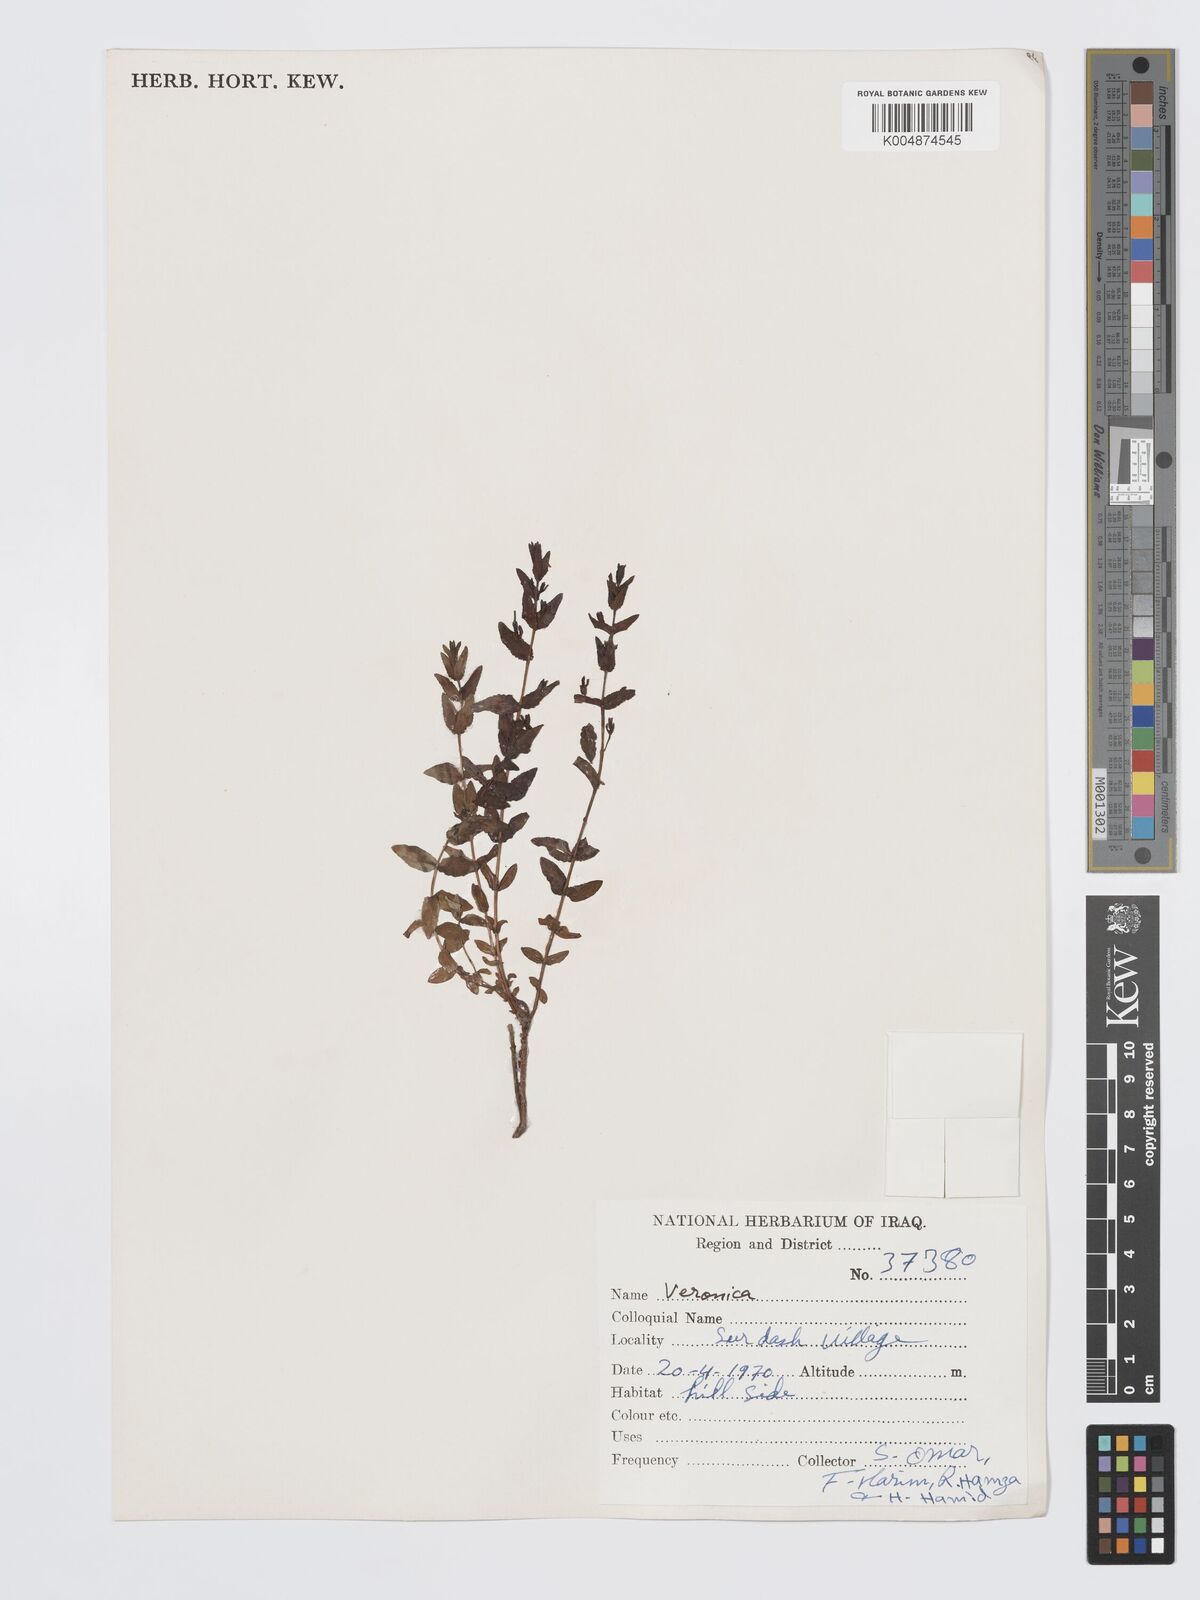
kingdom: Plantae
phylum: Tracheophyta
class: Magnoliopsida
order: Lamiales
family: Plantaginaceae
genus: Veronica
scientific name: Veronica
